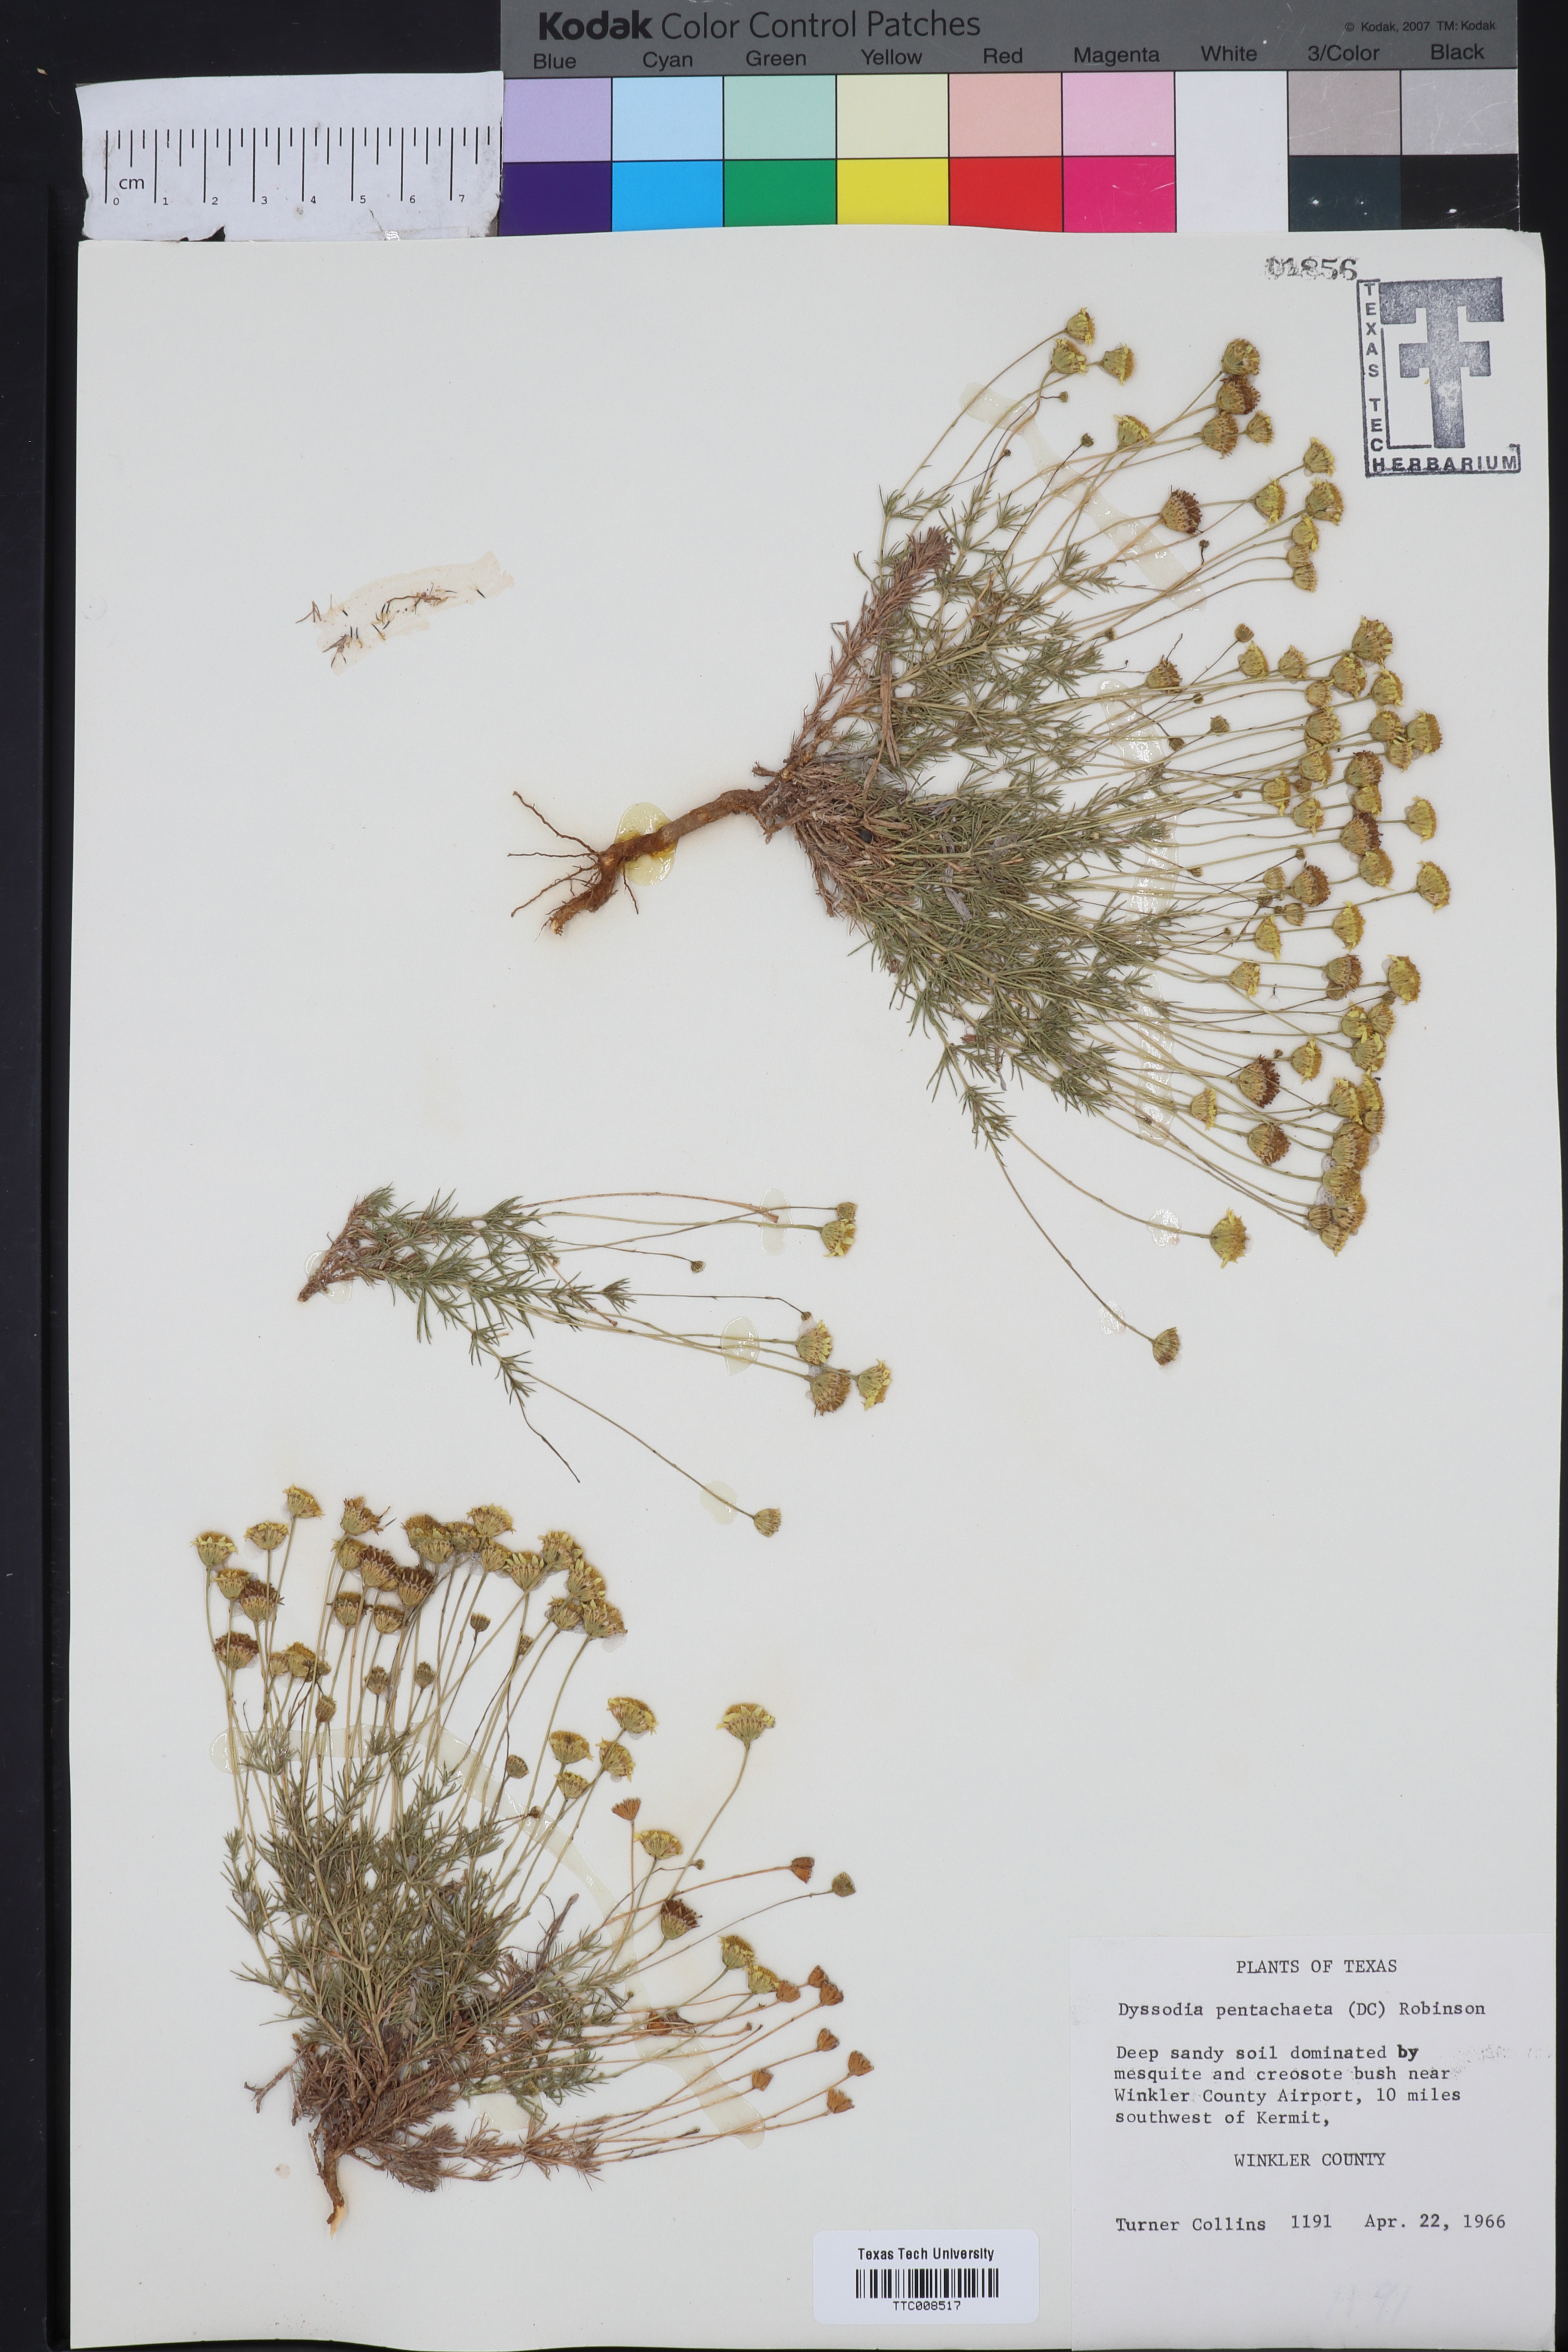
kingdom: Plantae
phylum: Tracheophyta
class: Magnoliopsida
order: Asterales
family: Asteraceae
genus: Thymophylla
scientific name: Thymophylla pentachaeta
